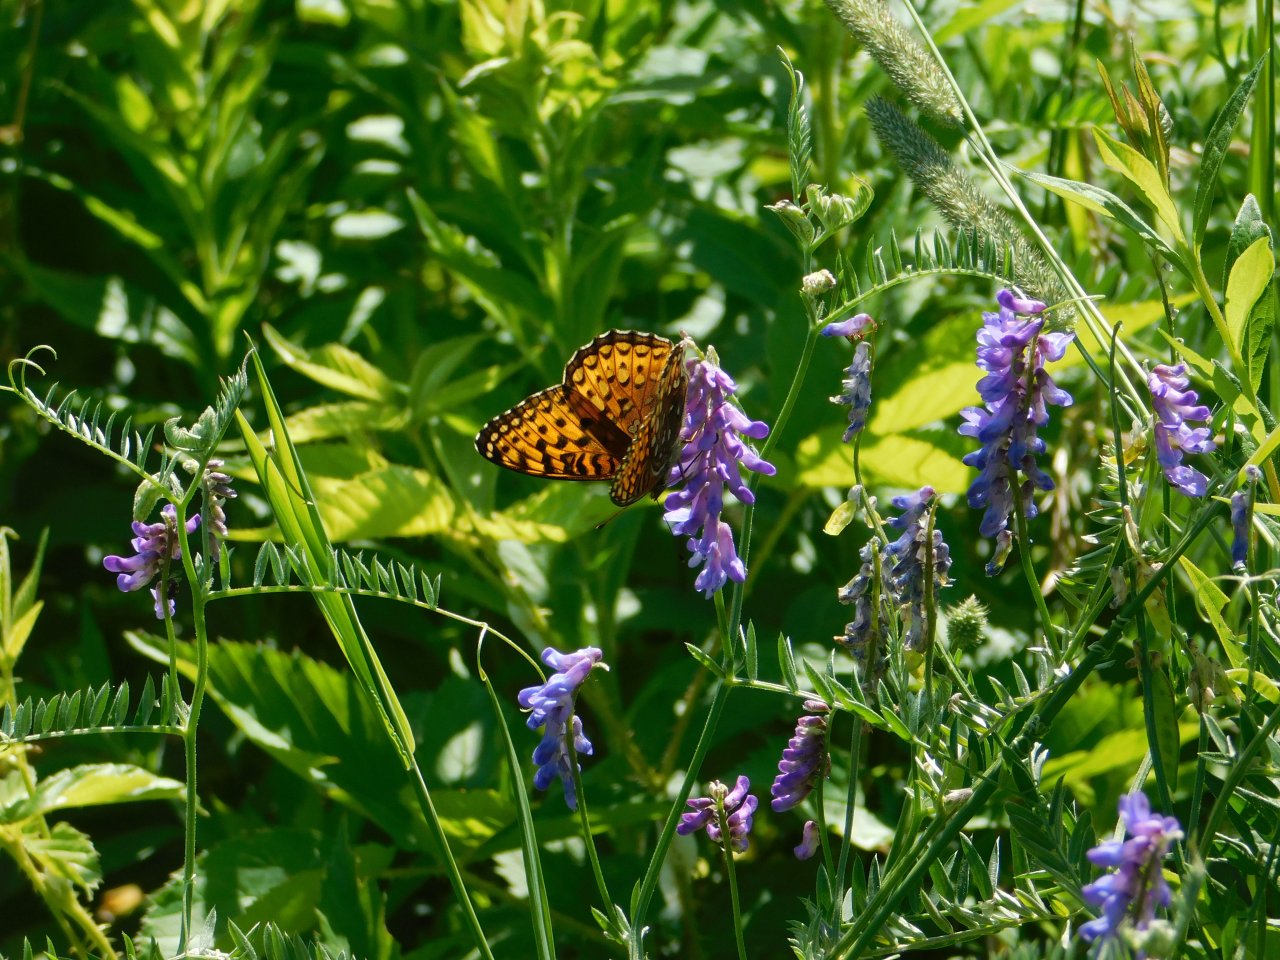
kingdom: Animalia
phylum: Arthropoda
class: Insecta
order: Lepidoptera
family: Nymphalidae
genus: Speyeria
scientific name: Speyeria atlantis
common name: Atlantis Fritillary
